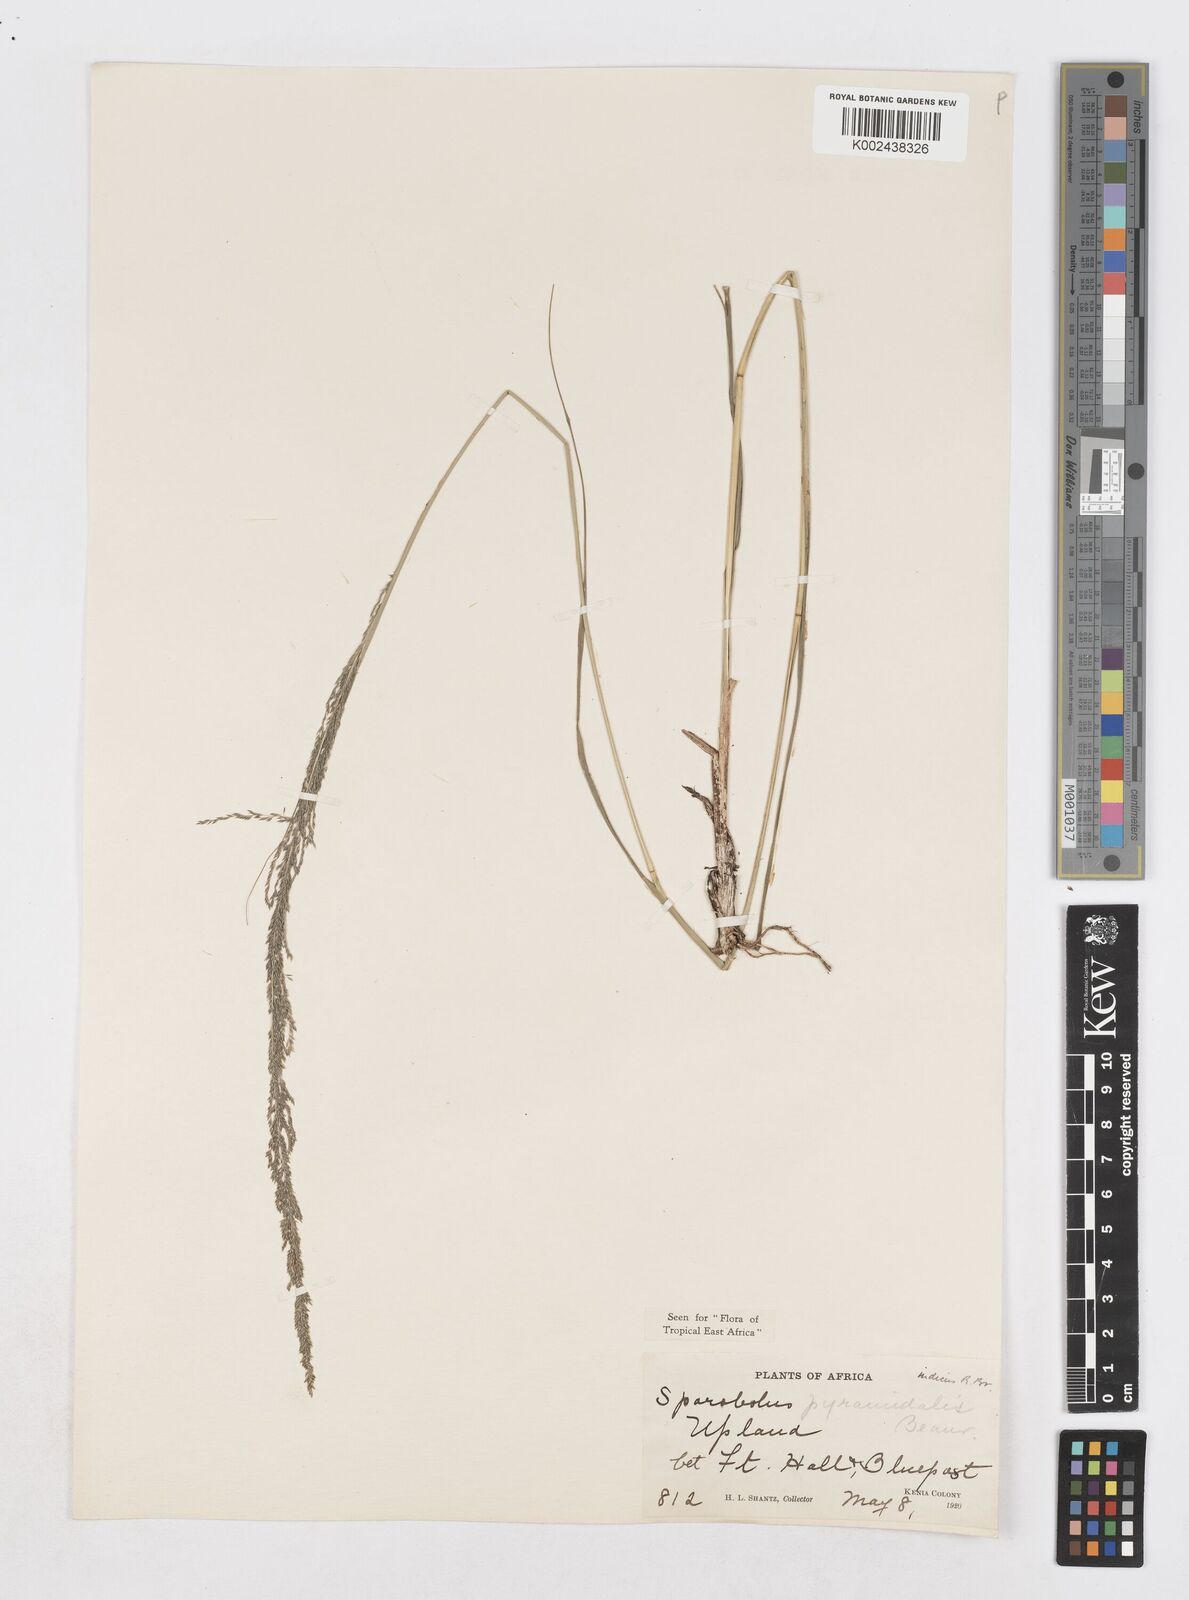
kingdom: Plantae
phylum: Tracheophyta
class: Liliopsida
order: Poales
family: Poaceae
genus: Sporobolus
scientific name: Sporobolus pyramidalis
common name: West indian dropseed
